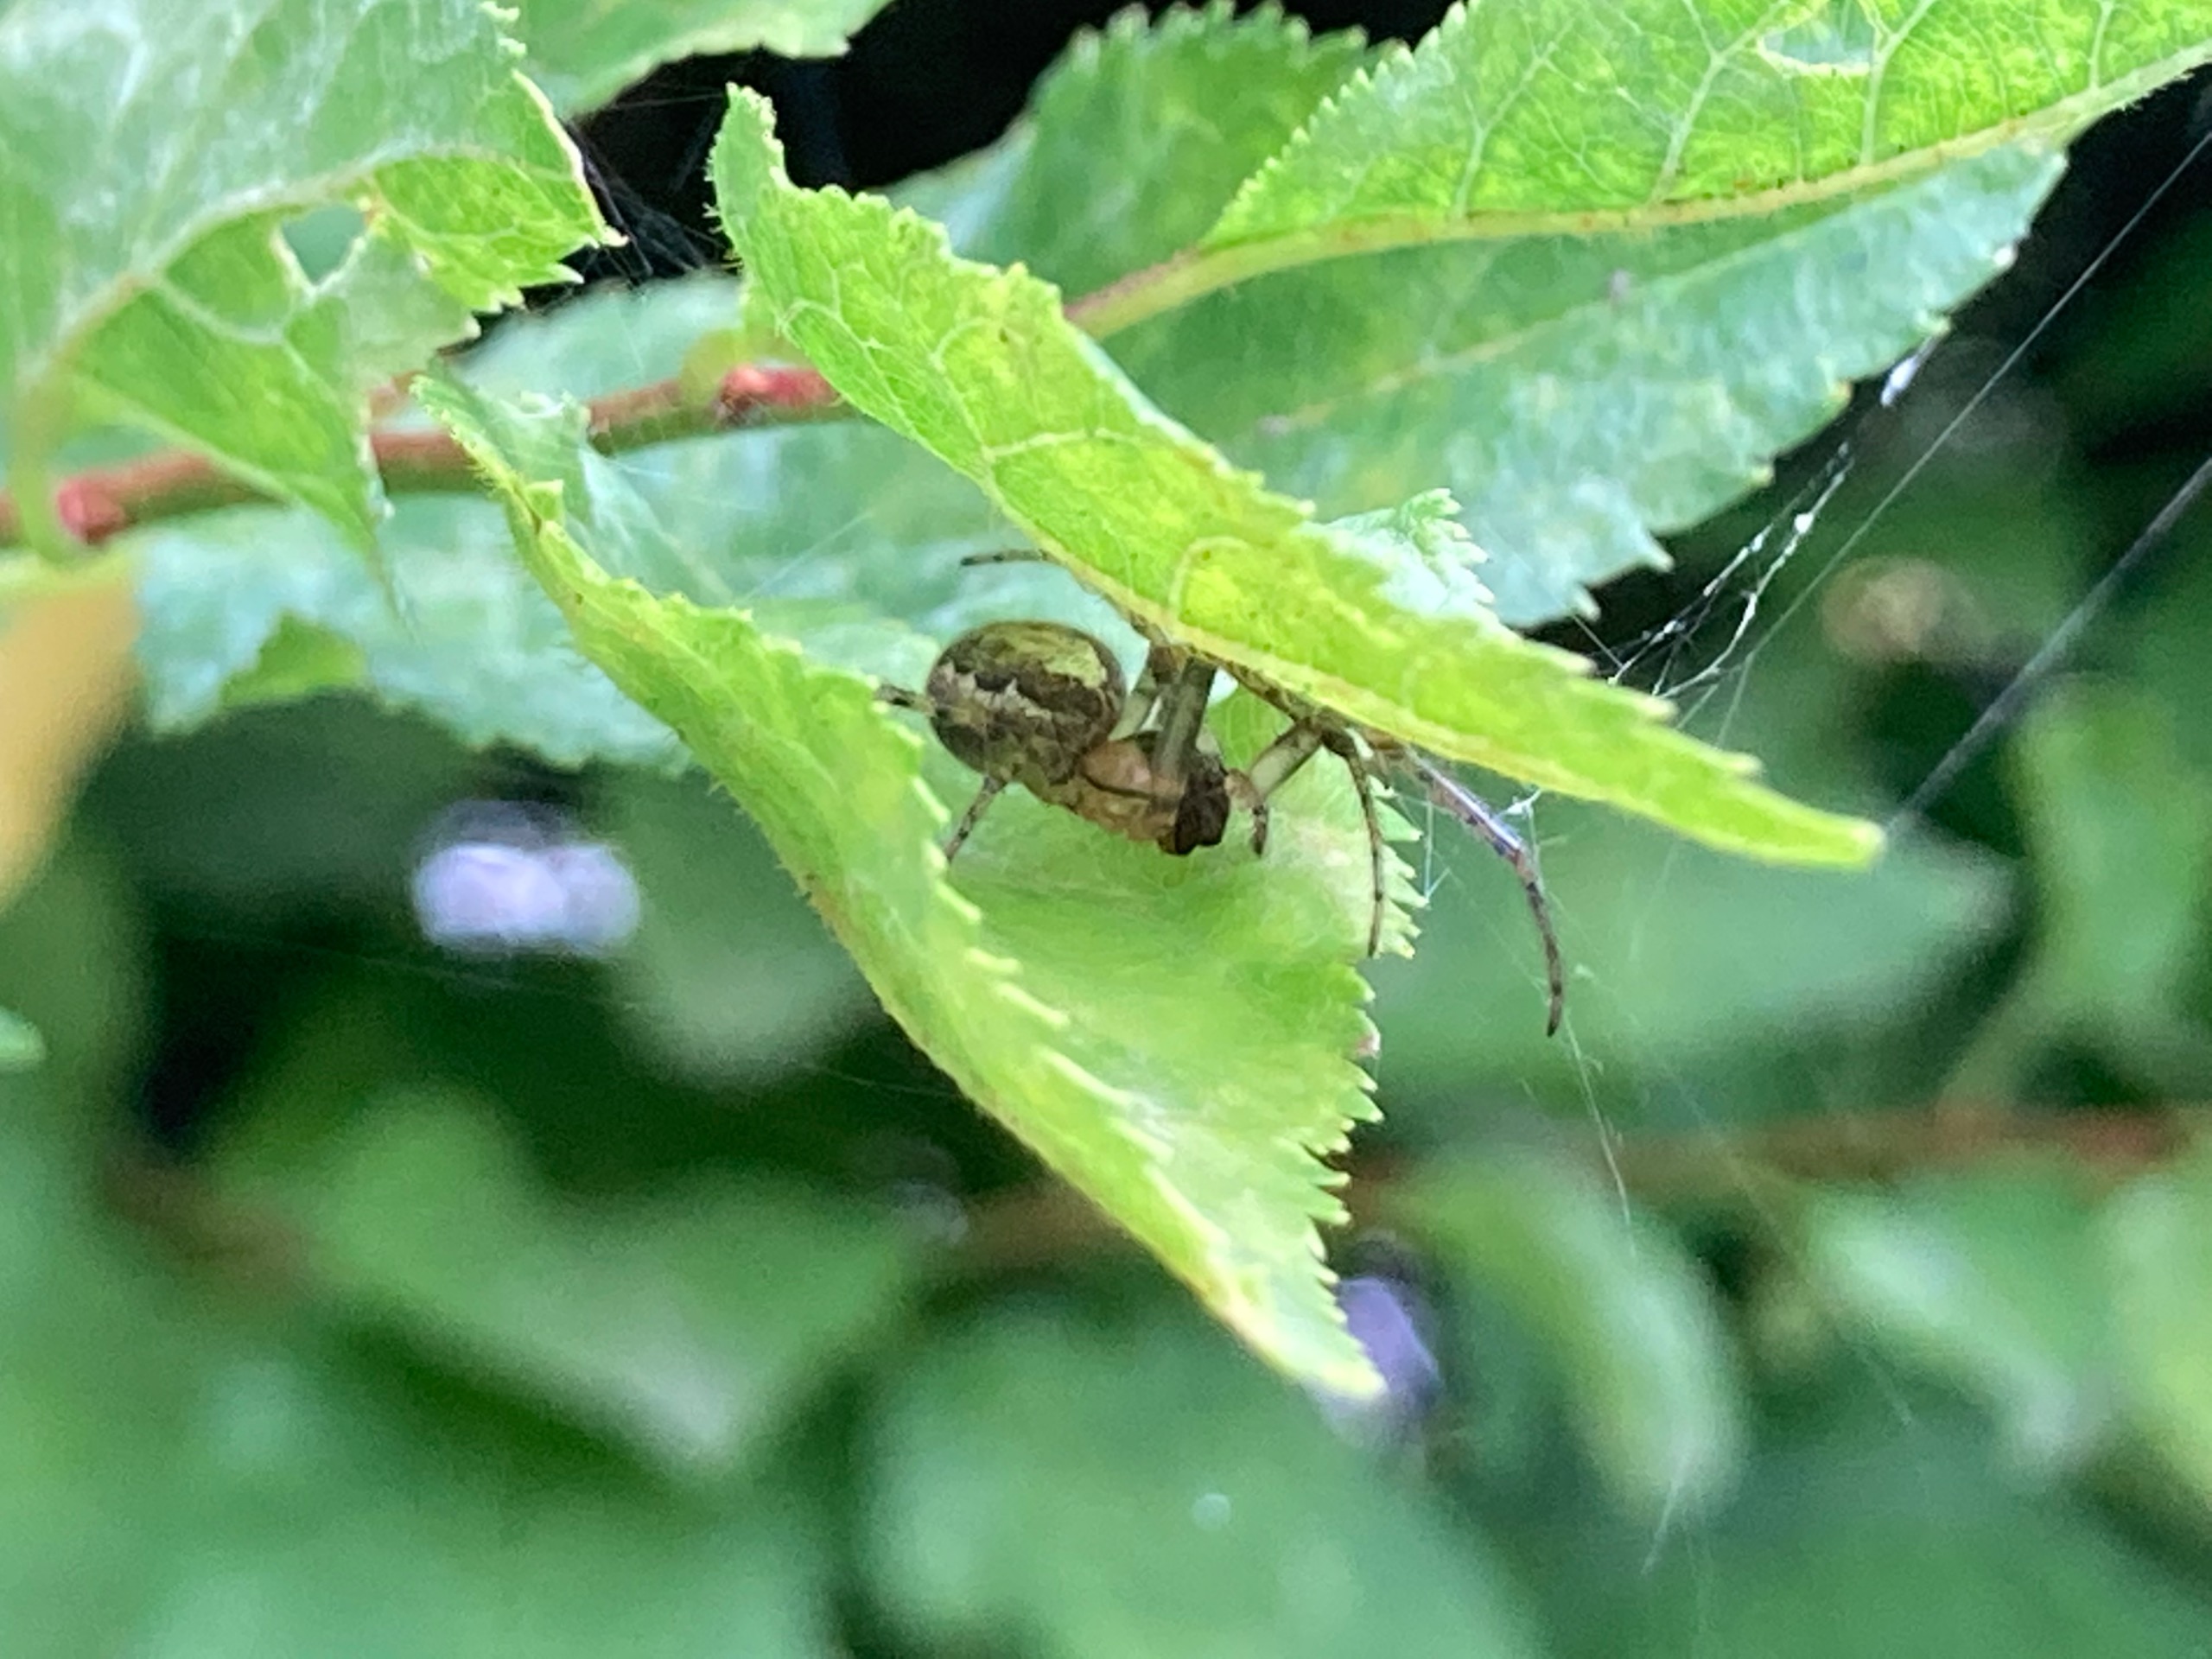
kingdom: Animalia
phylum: Arthropoda
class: Arachnida
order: Araneae
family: Araneidae
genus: Zygiella
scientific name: Zygiella
